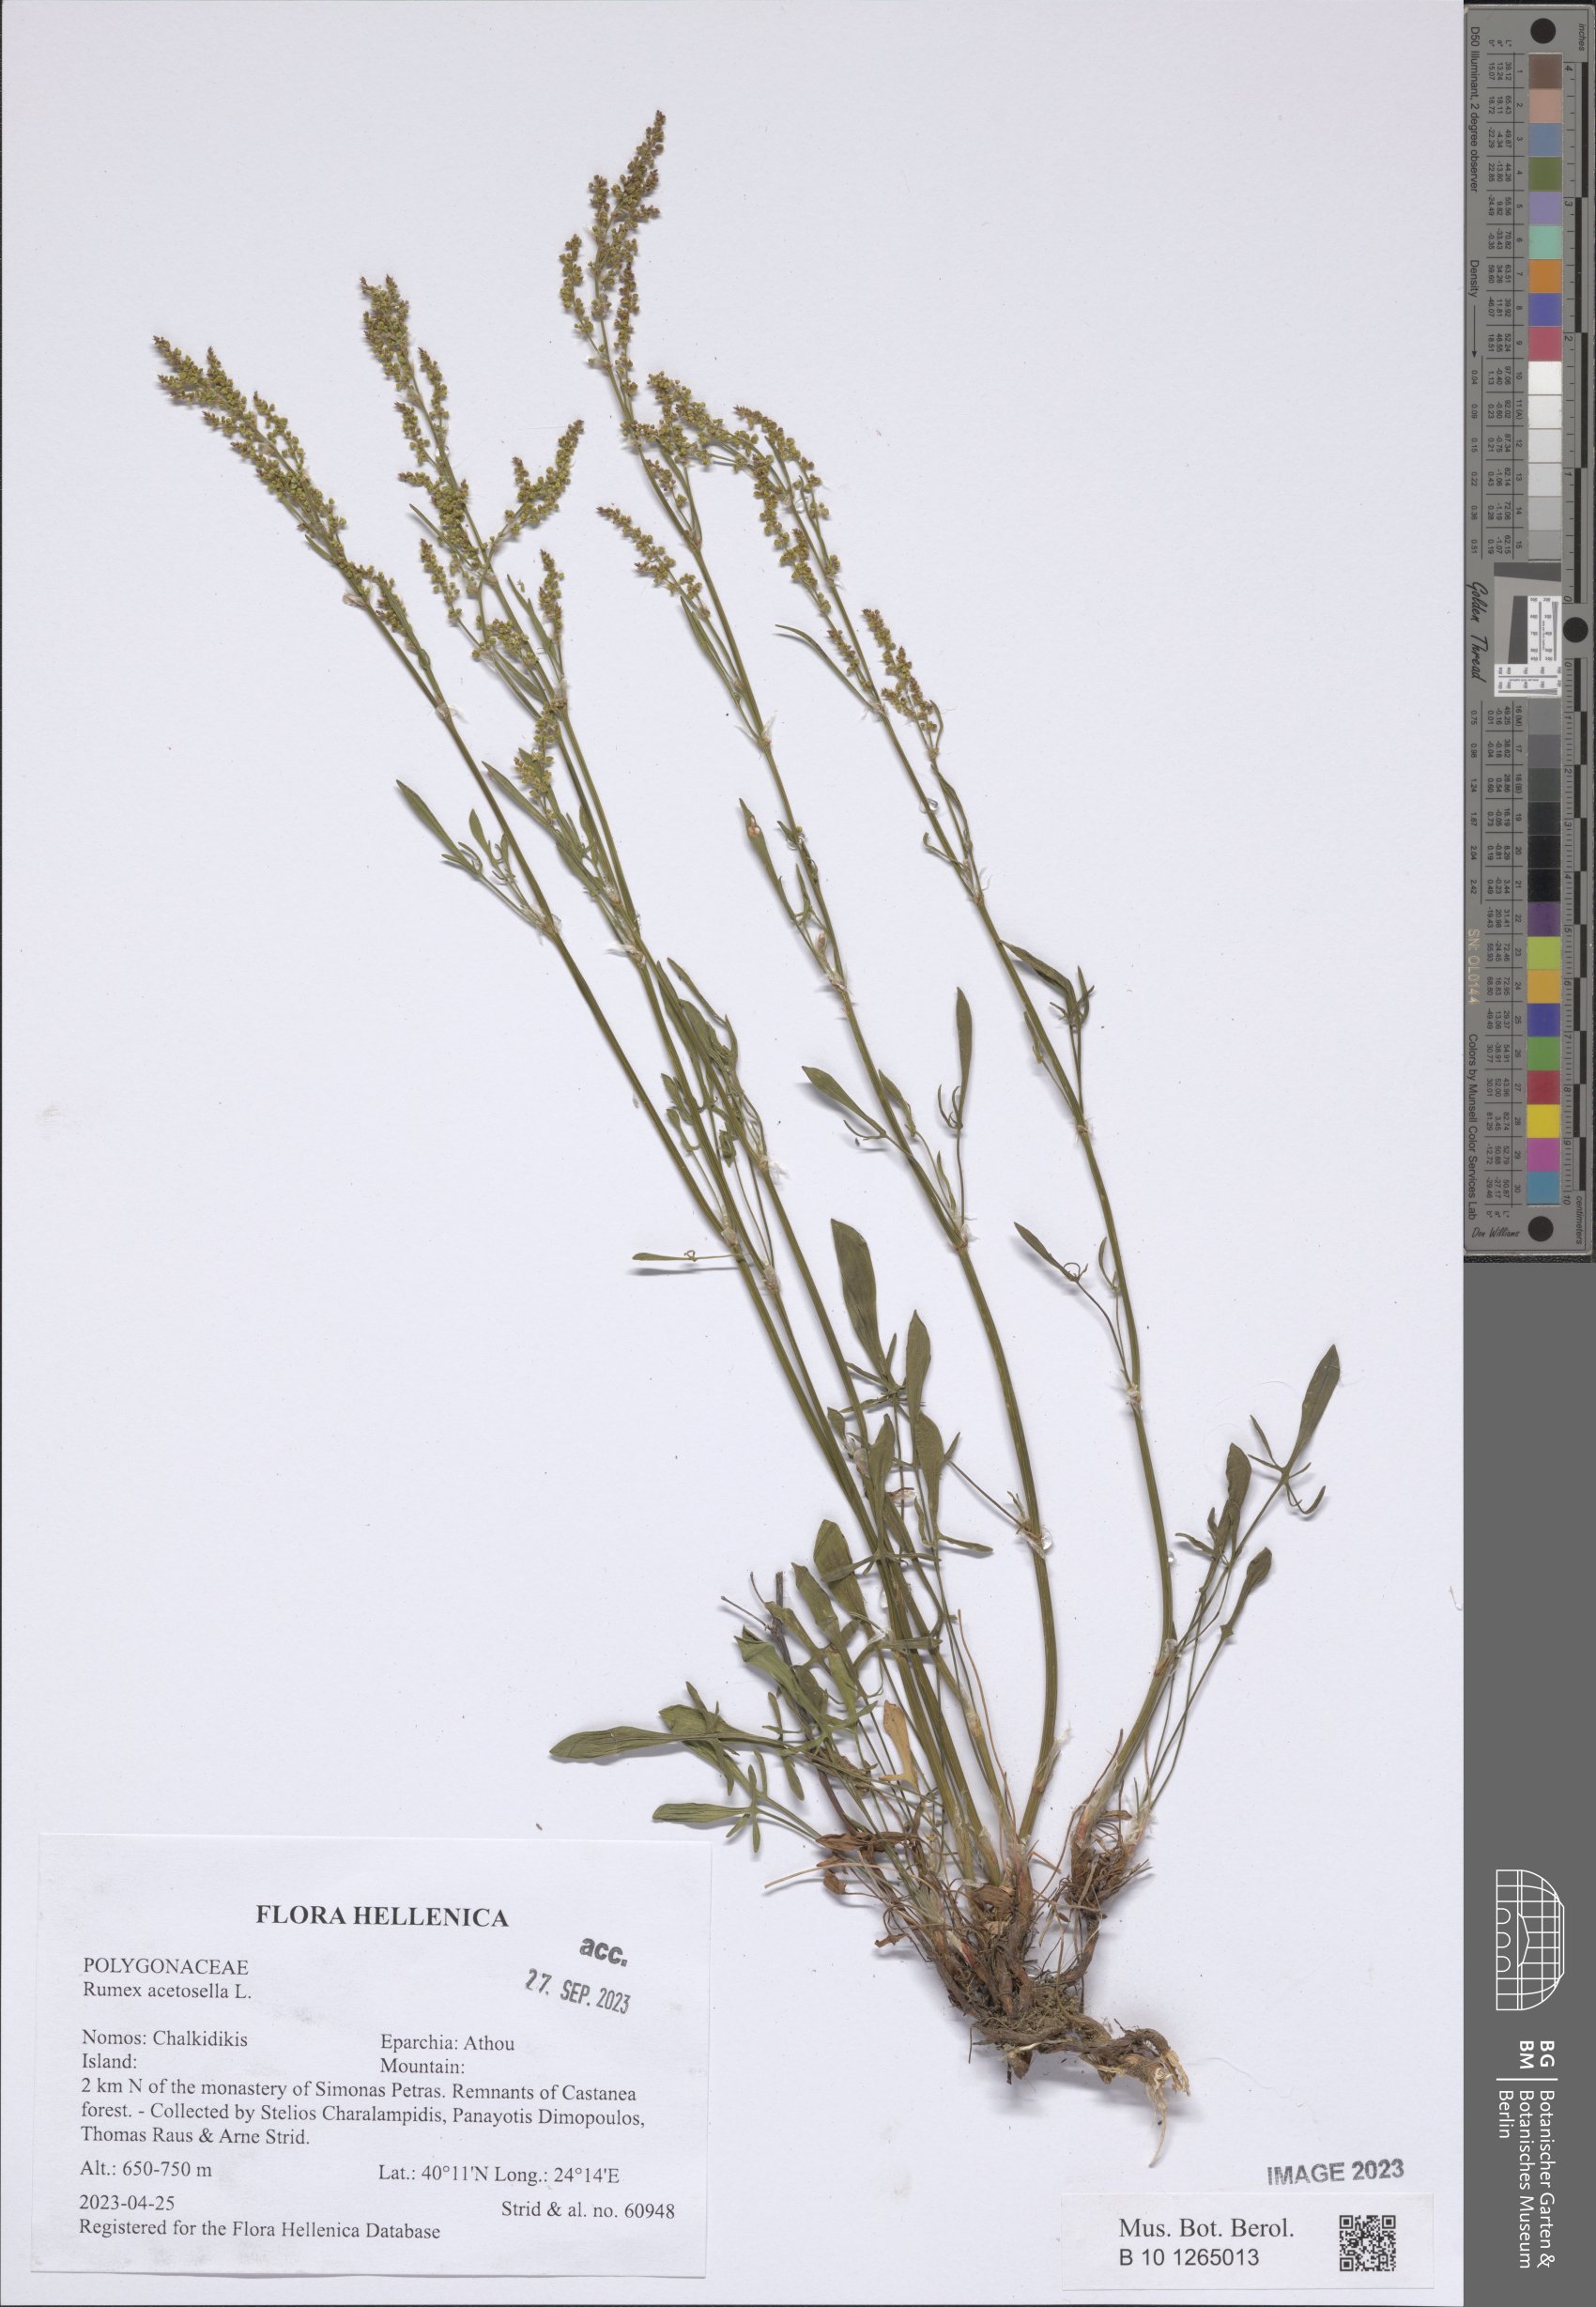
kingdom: Plantae
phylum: Tracheophyta
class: Magnoliopsida
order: Caryophyllales
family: Polygonaceae
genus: Rumex
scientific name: Rumex acetosella
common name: Common sheep sorrel
